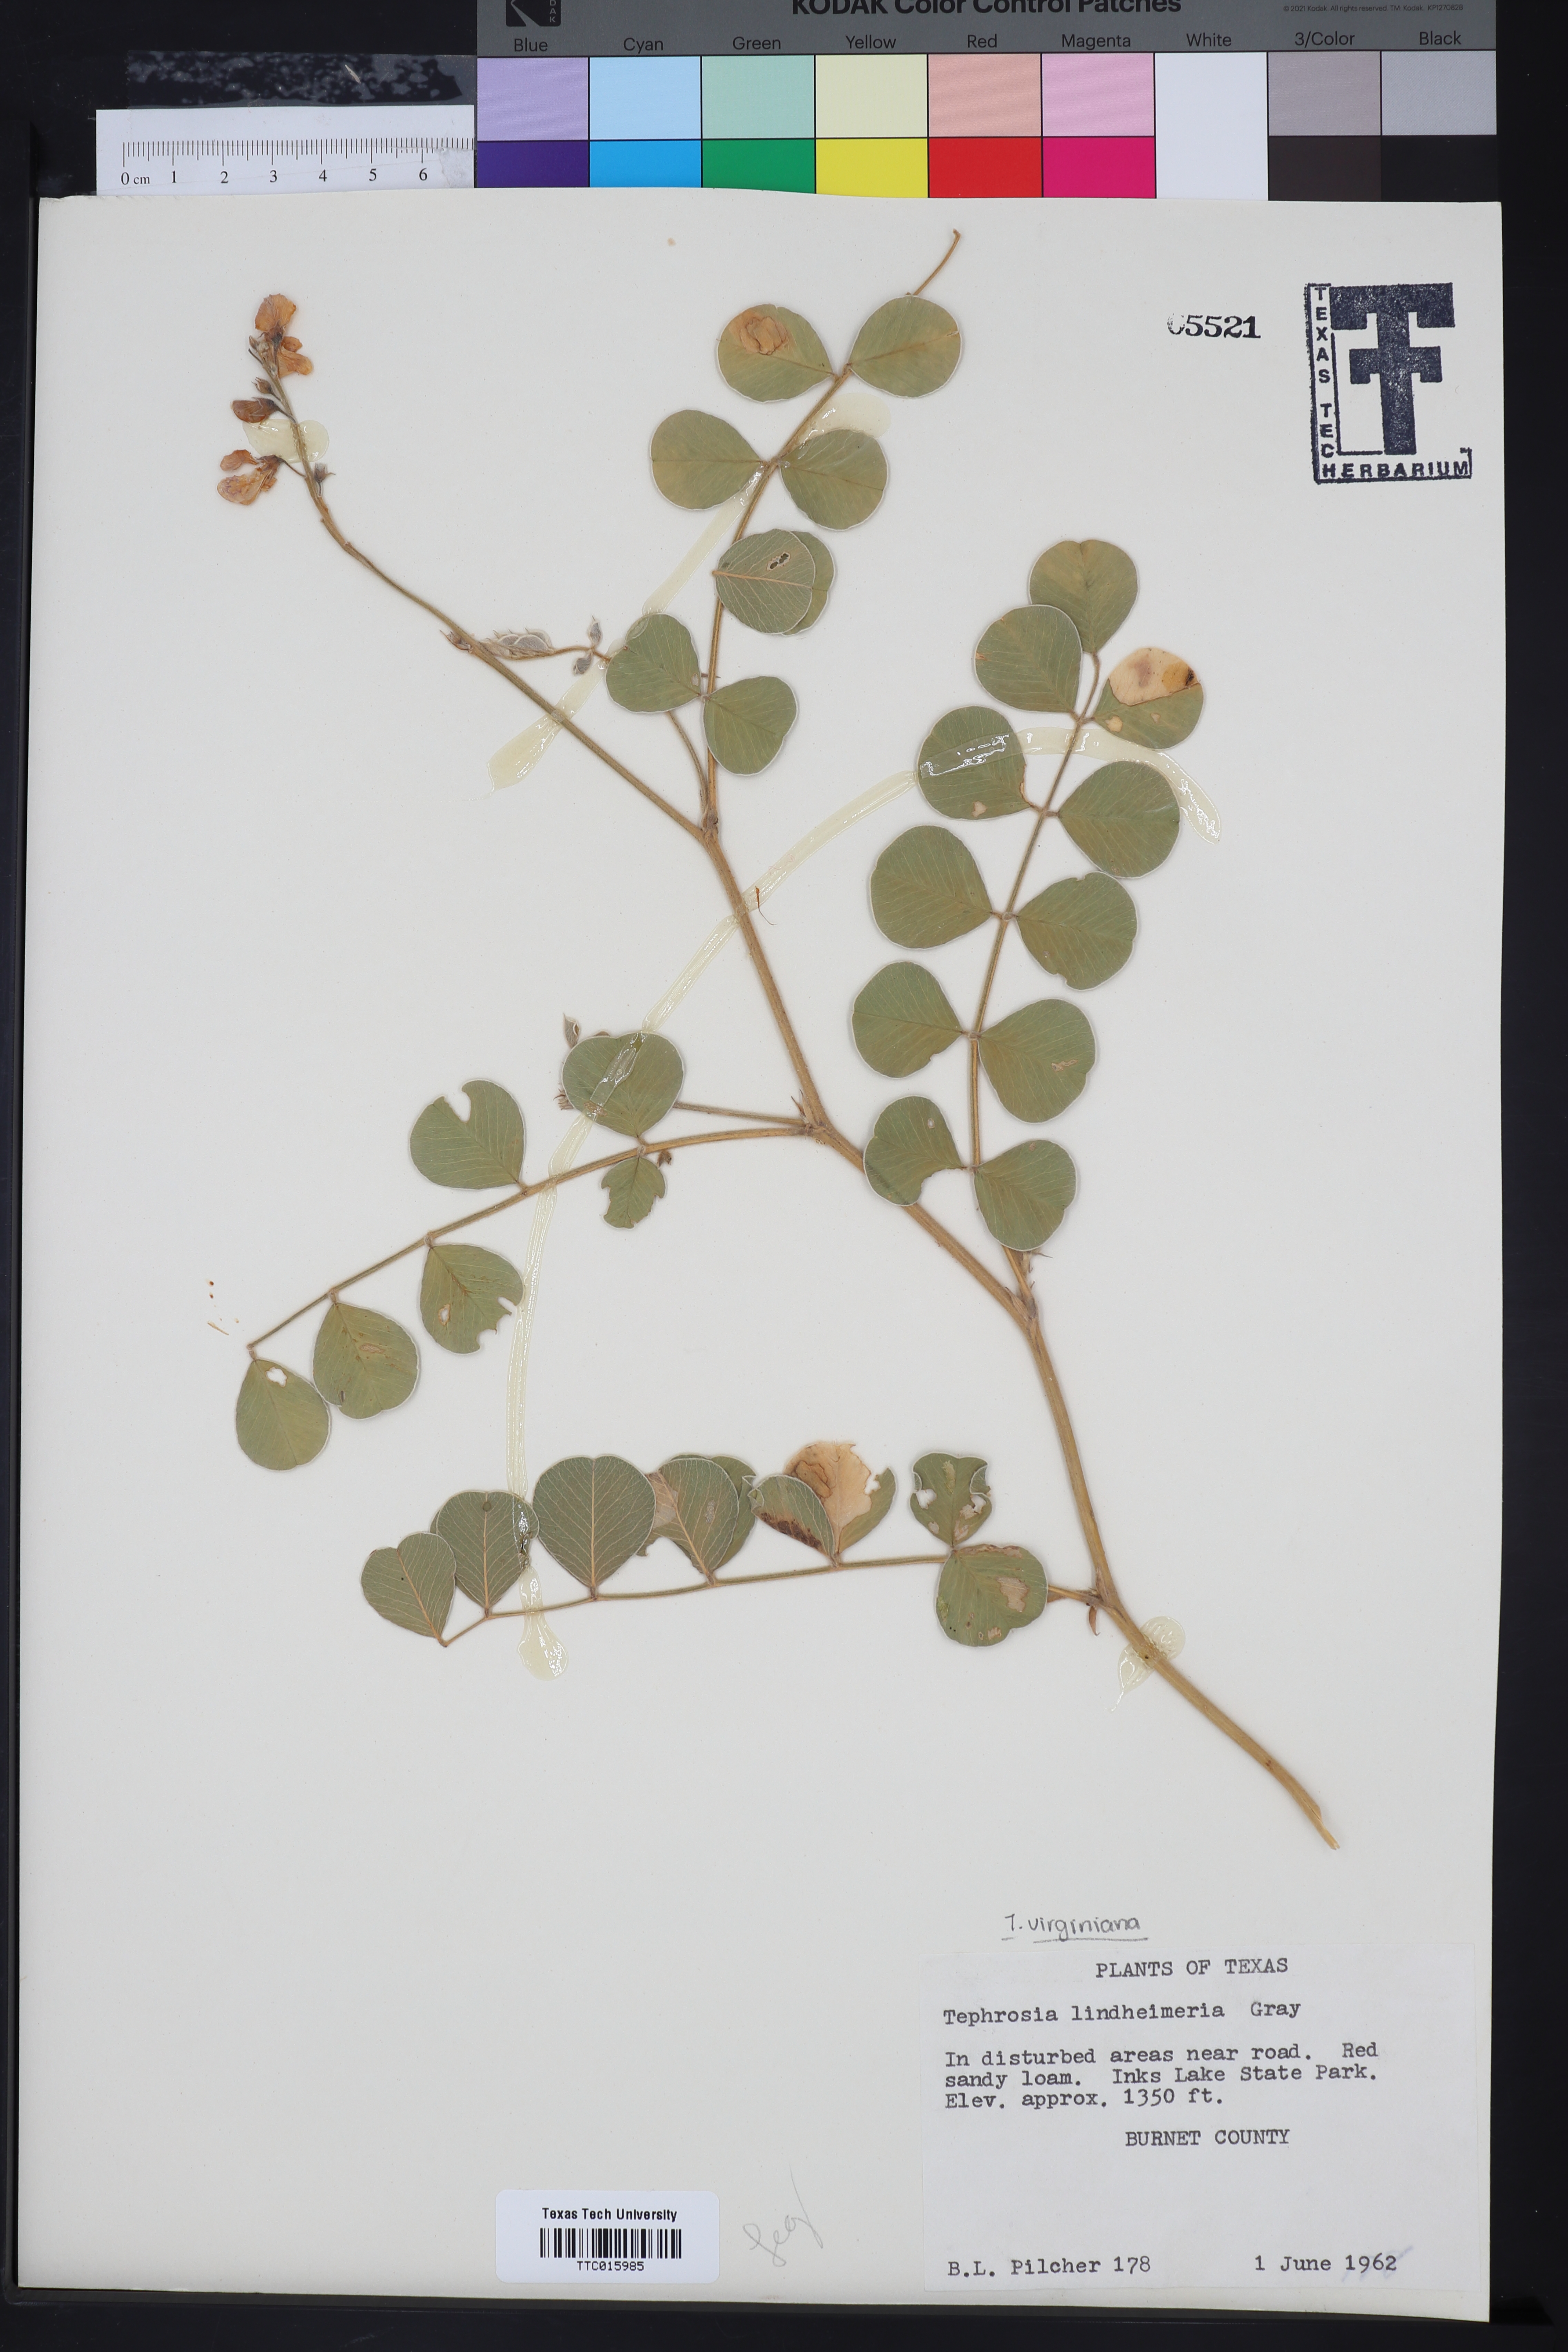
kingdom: Plantae
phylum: Tracheophyta
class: Magnoliopsida
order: Fabales
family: Fabaceae
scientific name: Fabaceae
